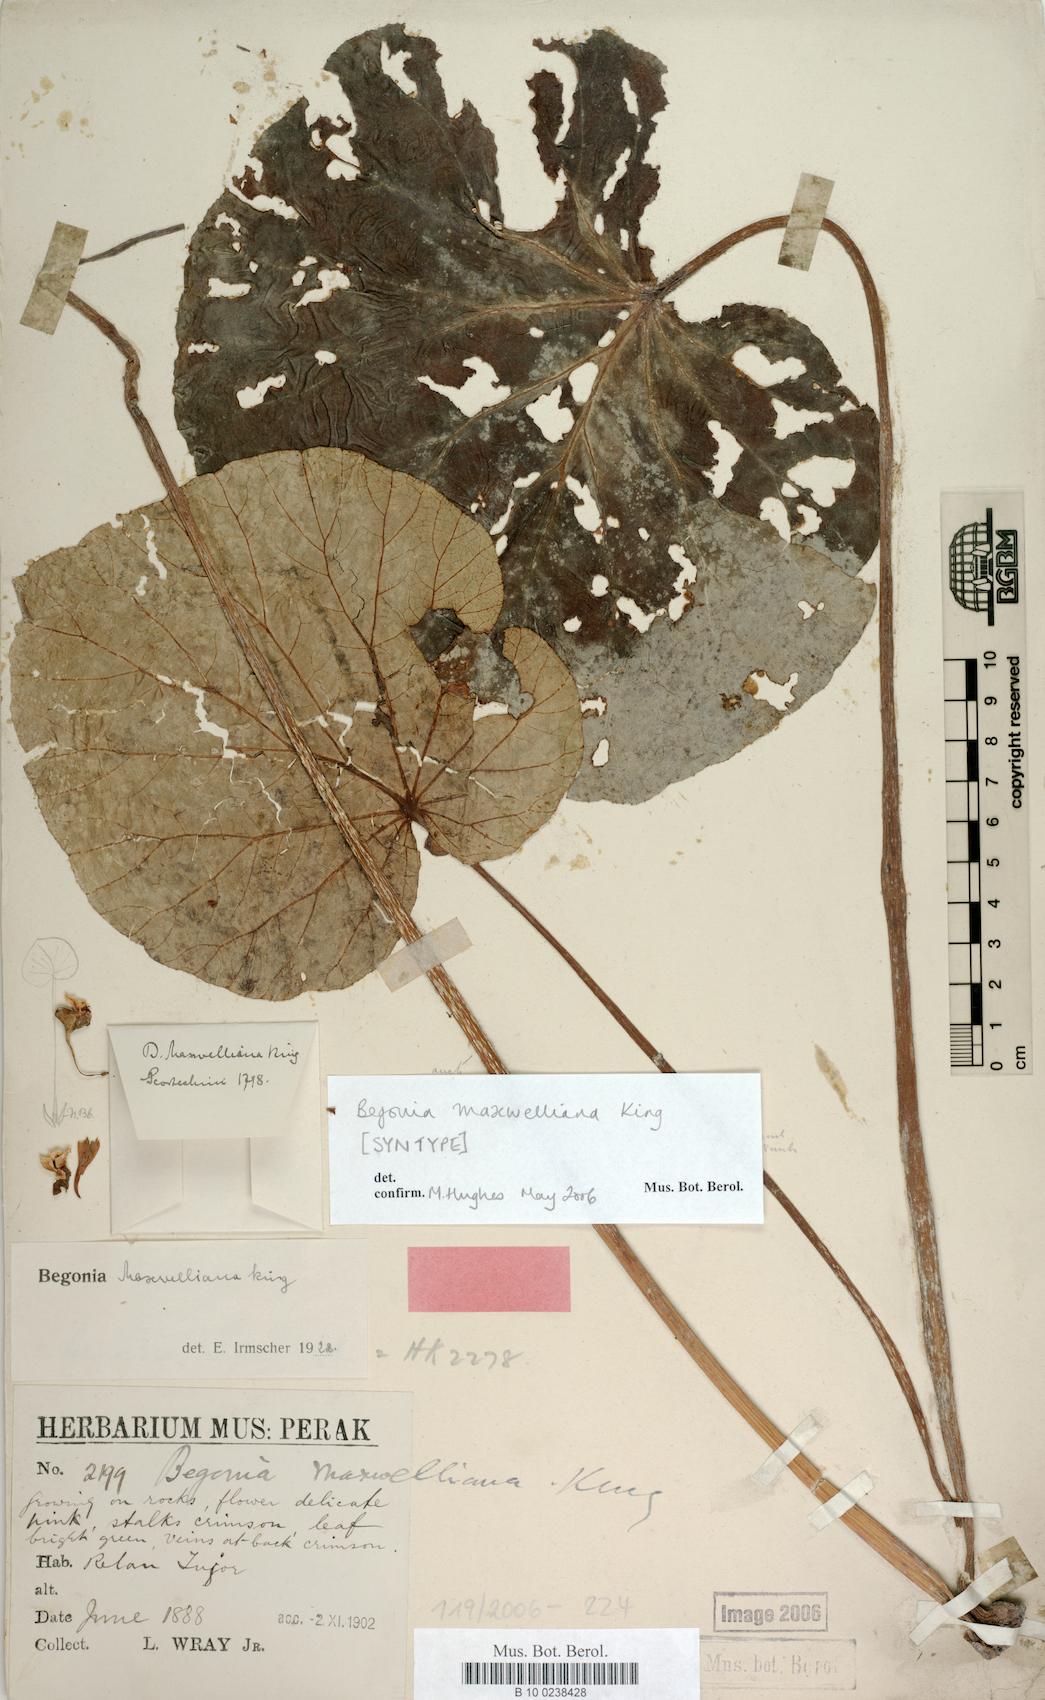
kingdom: Plantae
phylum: Tracheophyta
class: Magnoliopsida
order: Cucurbitales
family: Begoniaceae
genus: Begonia
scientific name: Begonia maxwelliana
